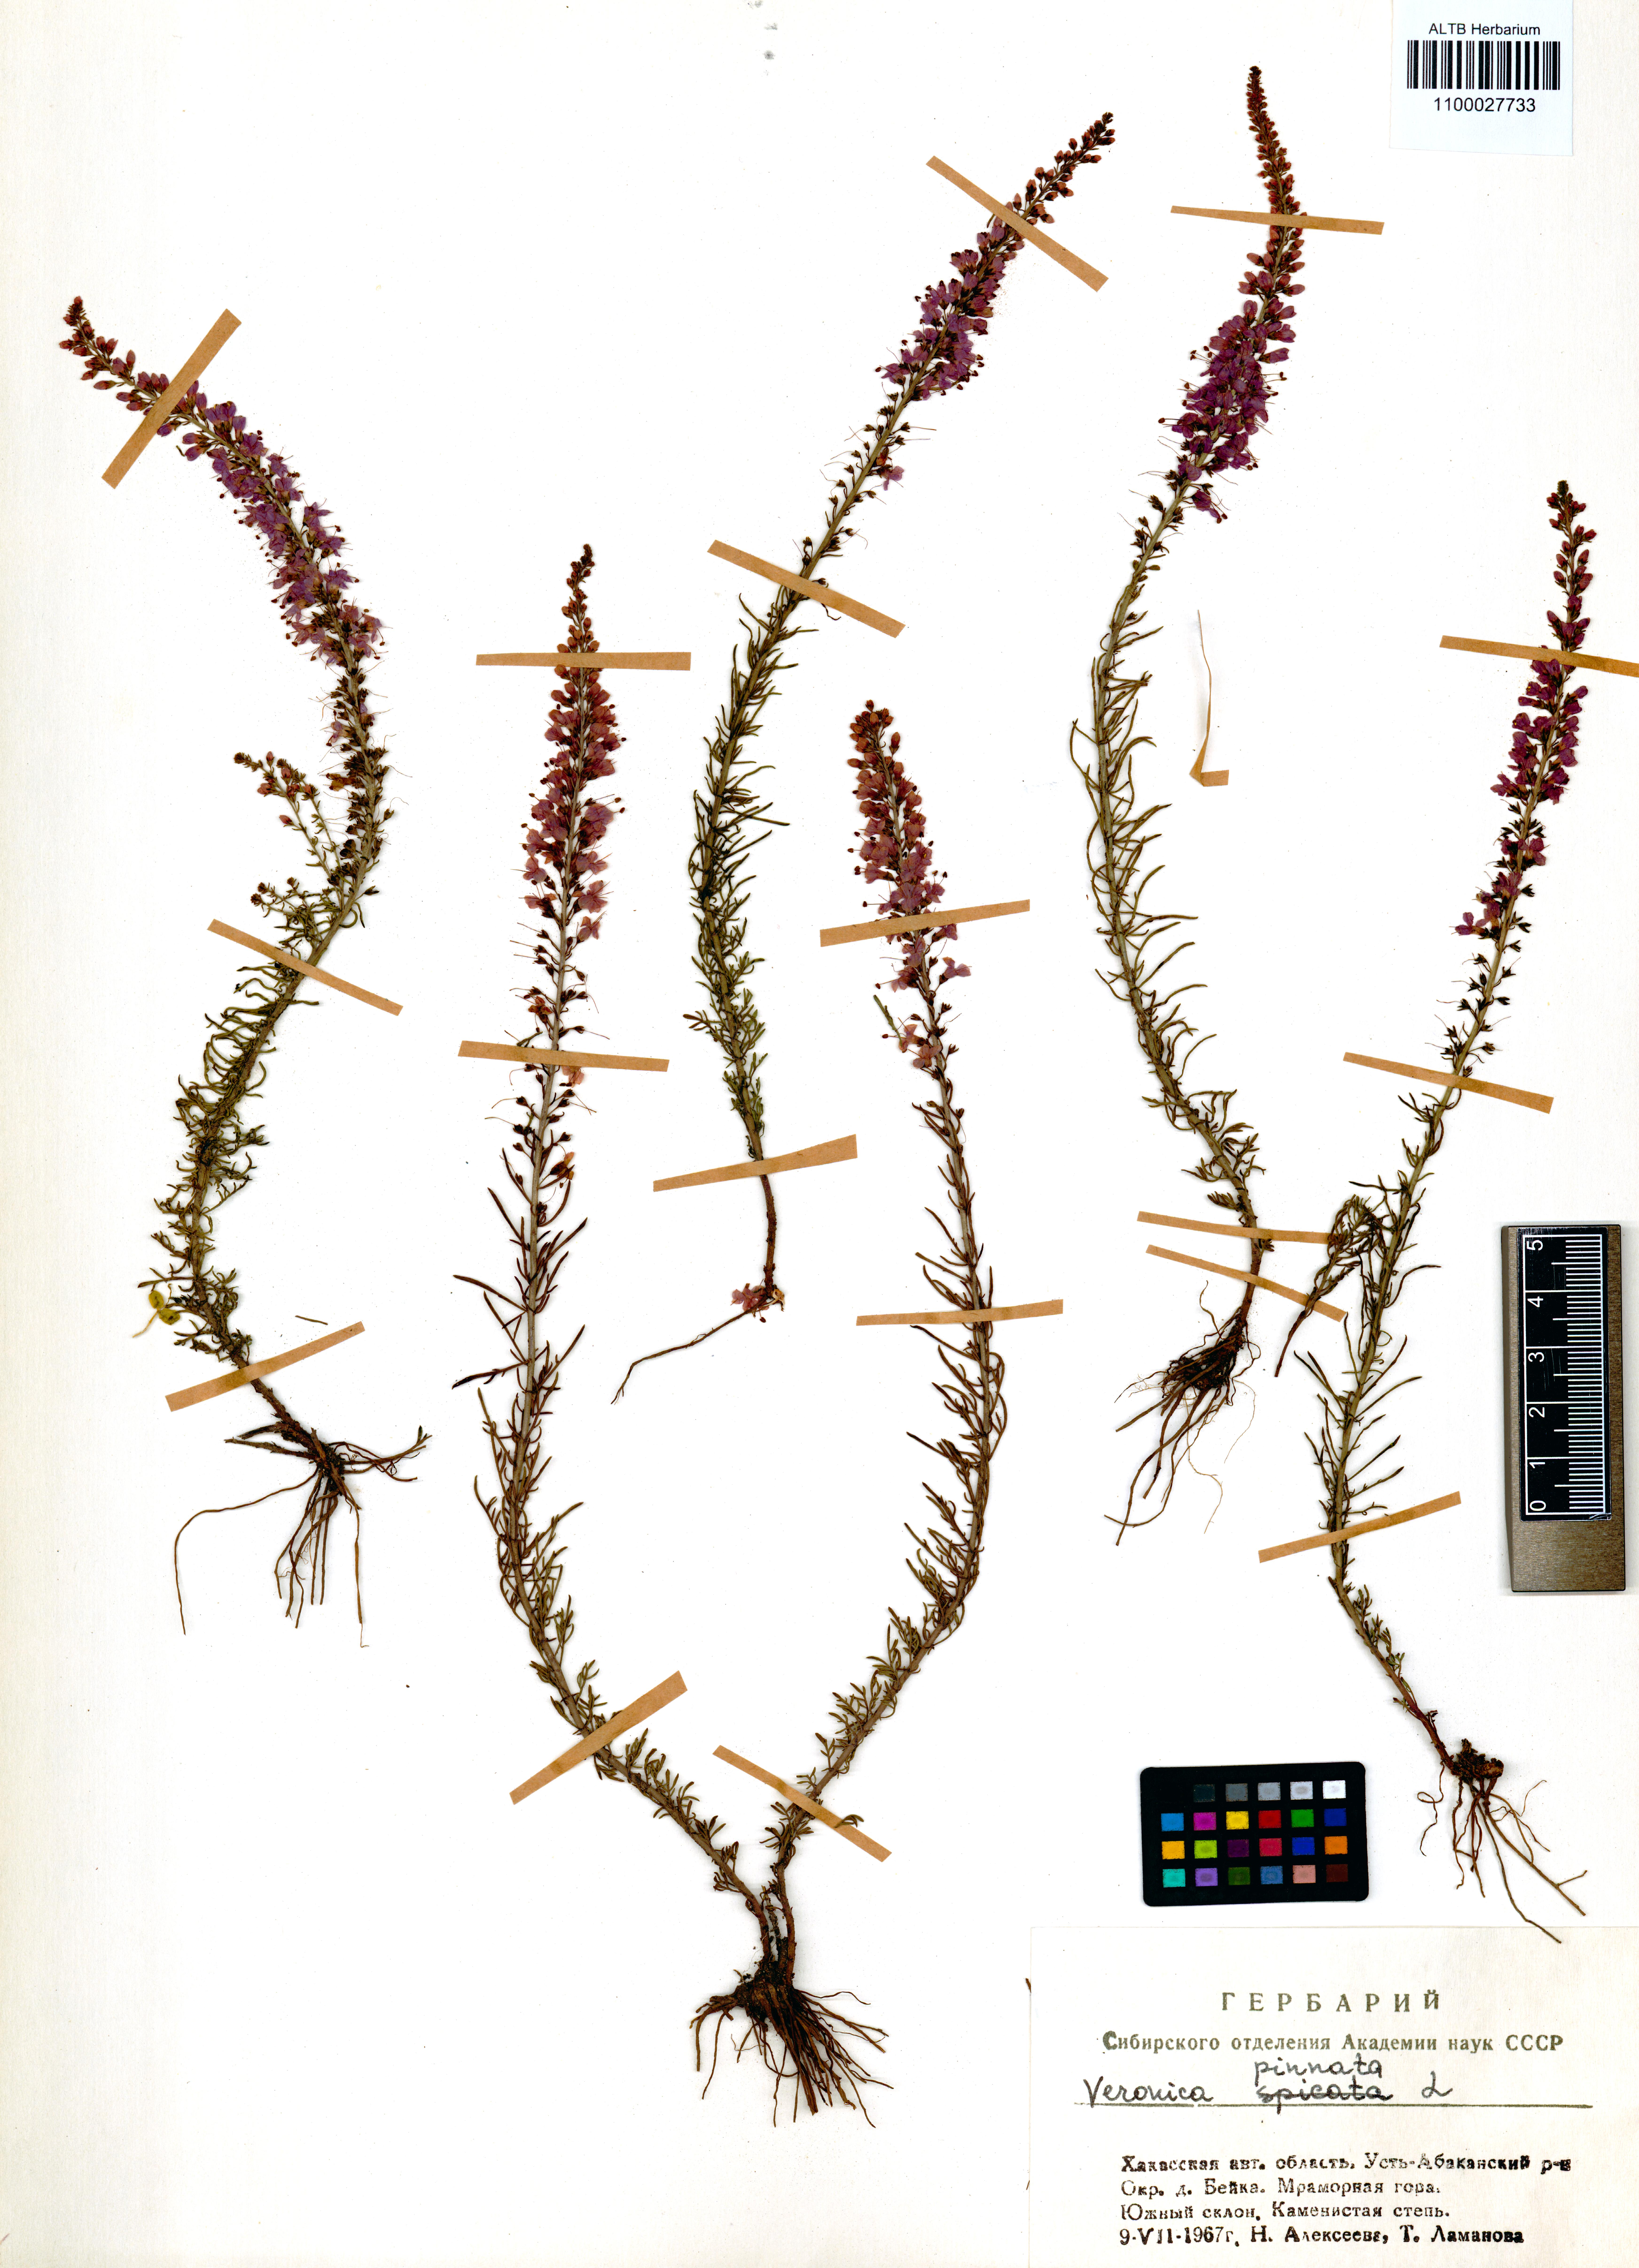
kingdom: Plantae
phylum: Tracheophyta
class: Magnoliopsida
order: Lamiales
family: Plantaginaceae
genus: Veronica
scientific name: Veronica pinnata
